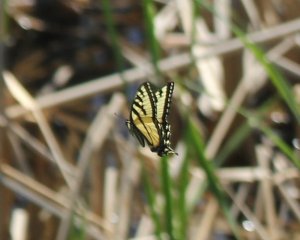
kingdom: Animalia
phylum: Arthropoda
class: Insecta
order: Lepidoptera
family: Papilionidae
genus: Pterourus
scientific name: Pterourus canadensis
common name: Canadian Tiger Swallowtail
